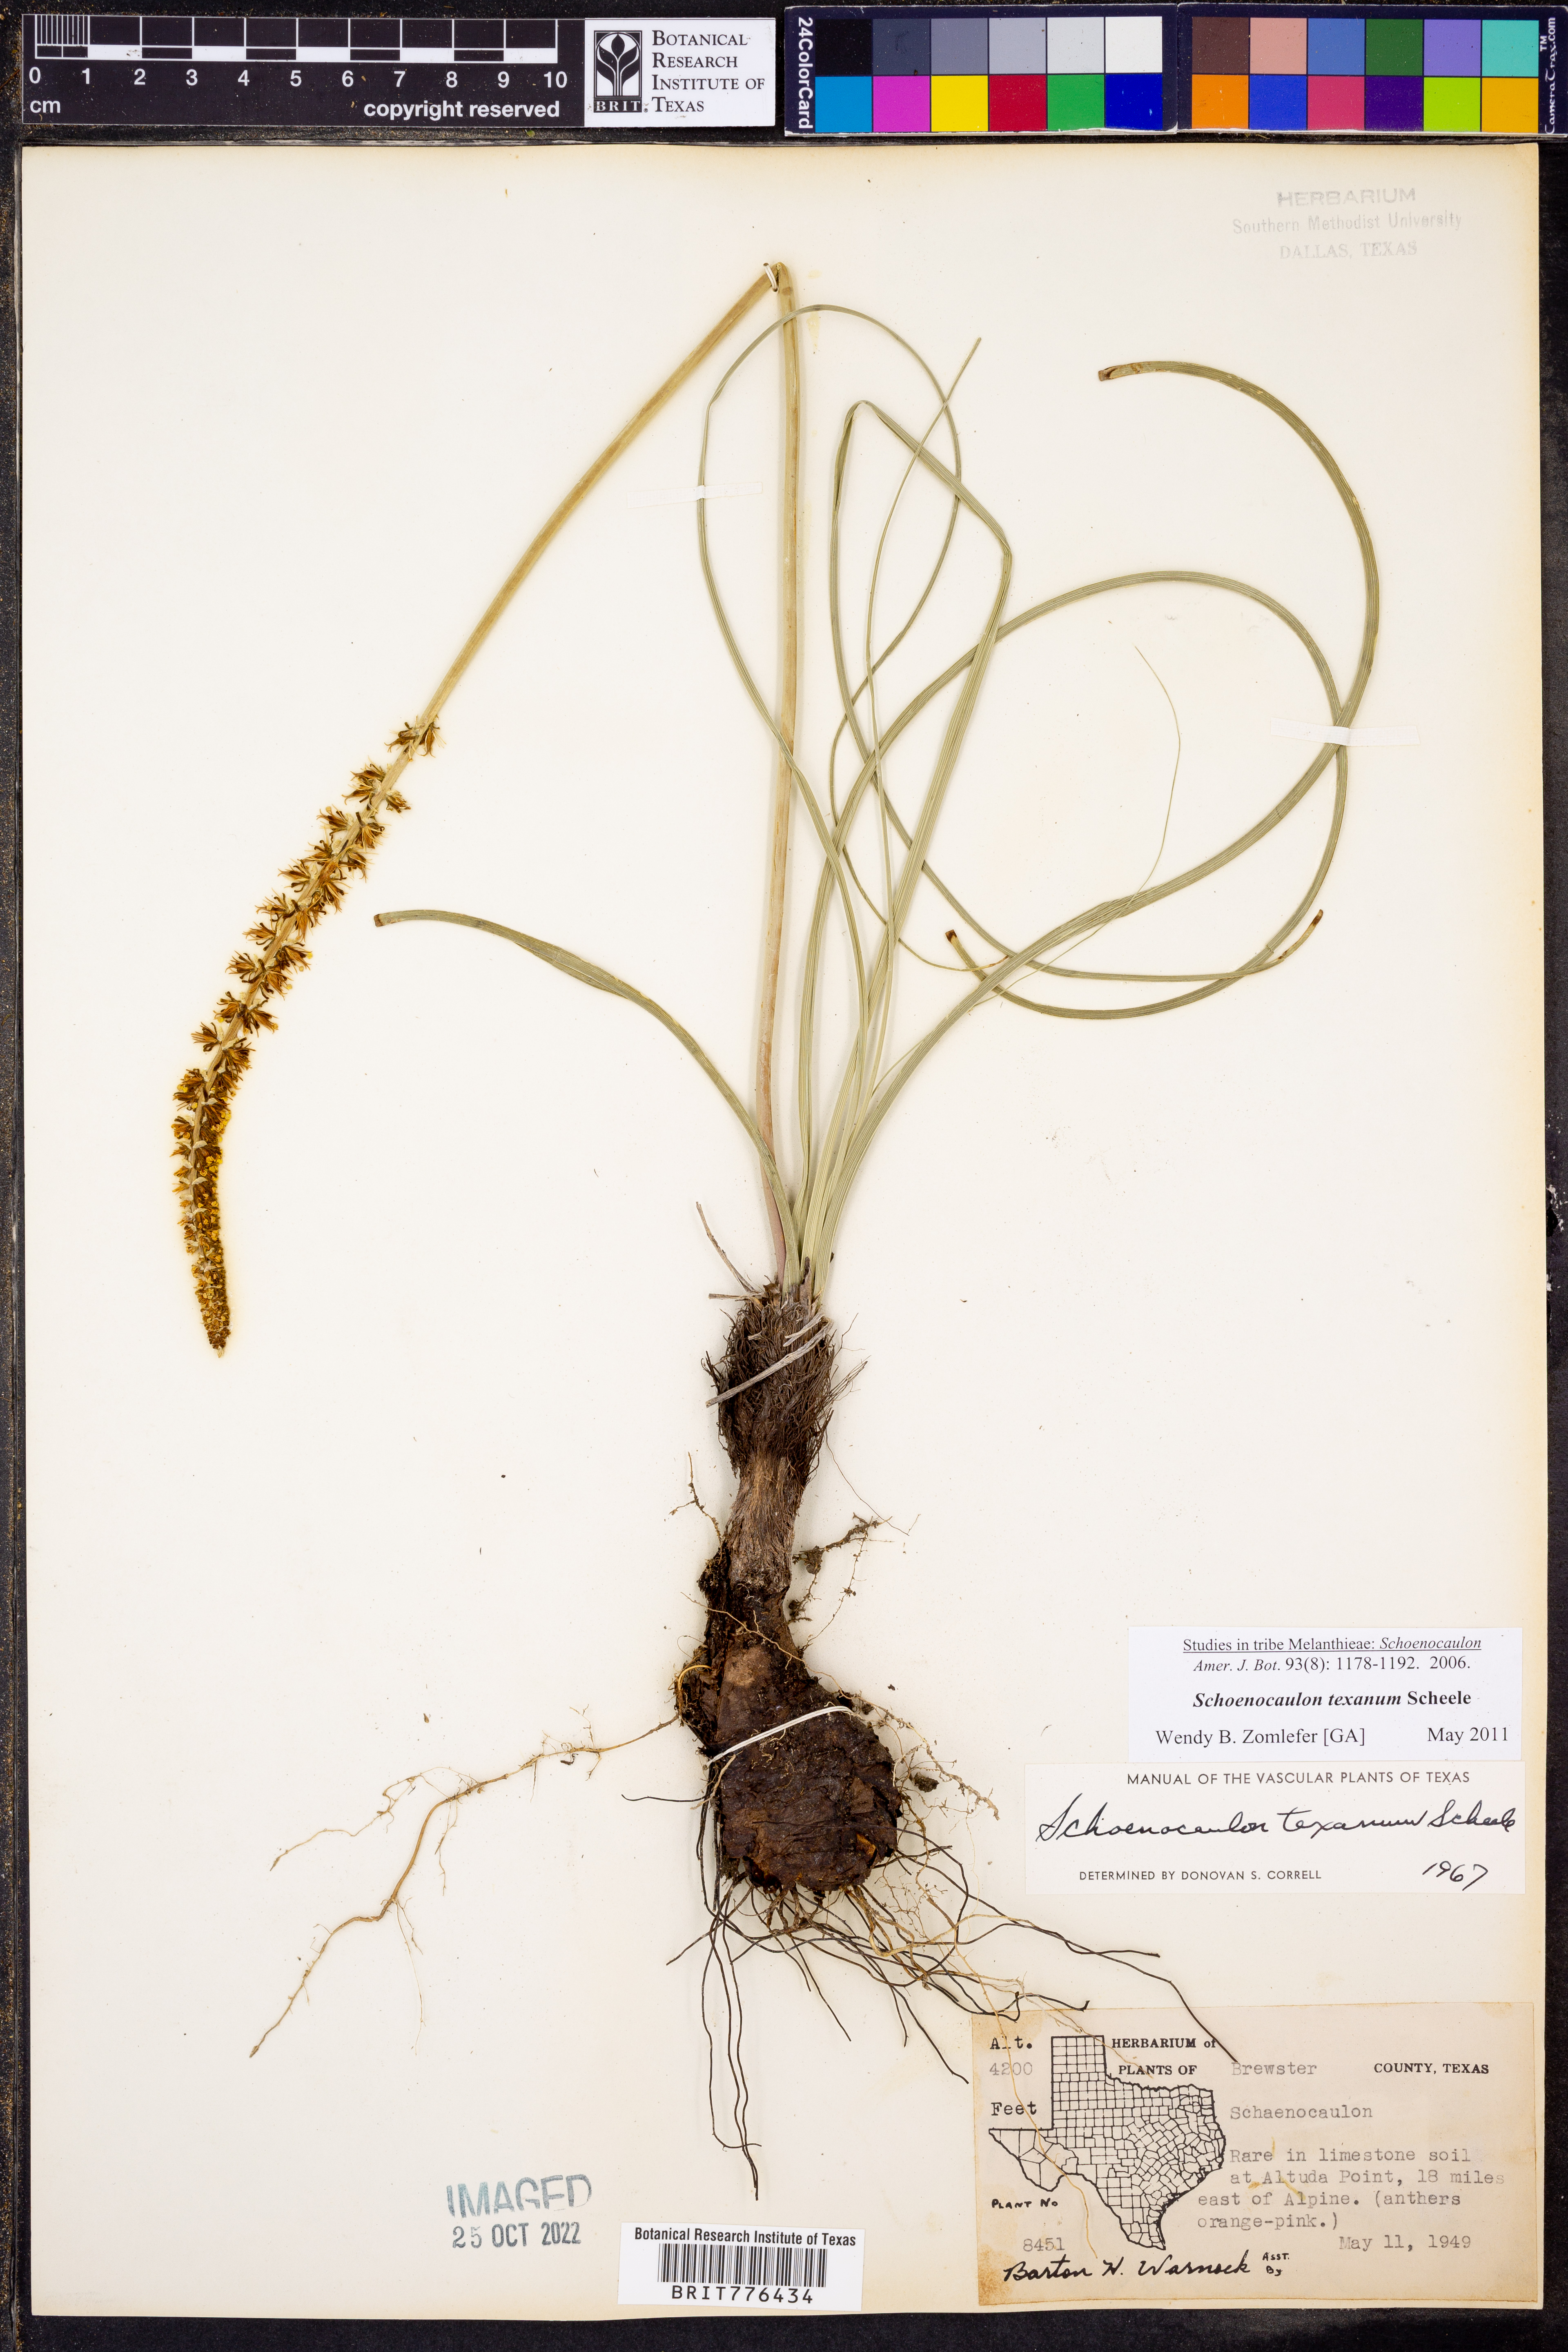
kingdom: Plantae
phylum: Tracheophyta
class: Liliopsida
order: Liliales
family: Melanthiaceae
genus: Schoenocaulon
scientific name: Schoenocaulon texanum
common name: Texas feather-shank
